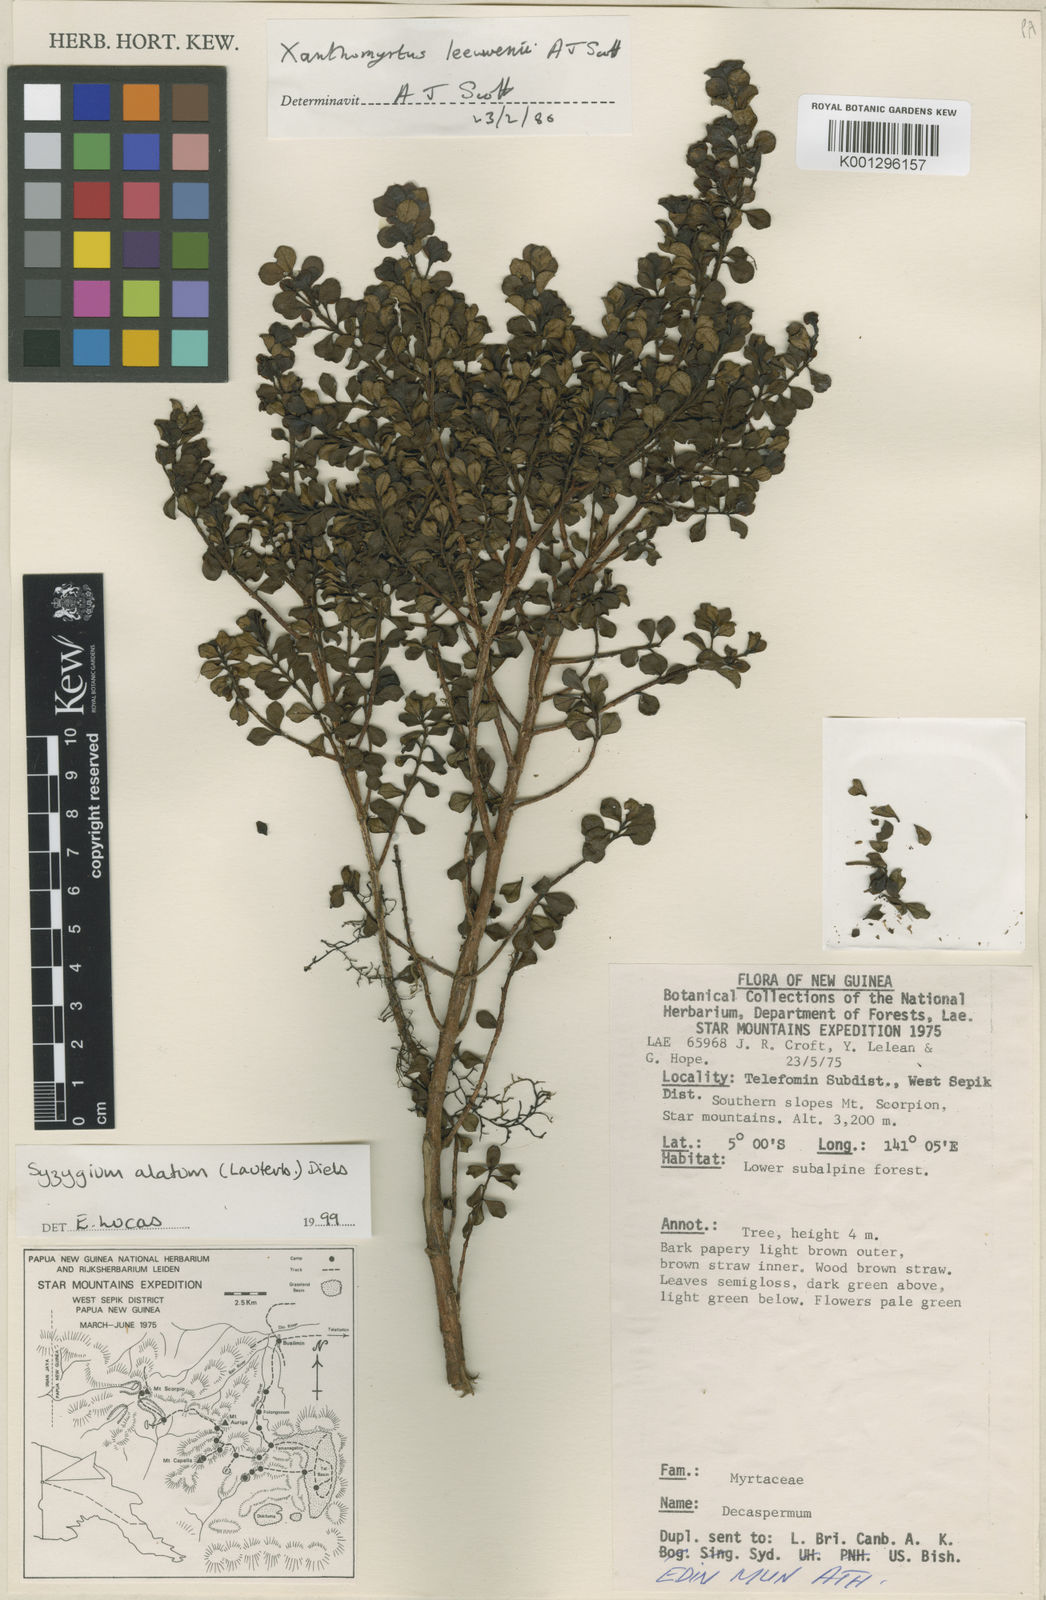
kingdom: Plantae
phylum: Tracheophyta
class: Magnoliopsida
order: Myrtales
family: Myrtaceae
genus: Syzygium
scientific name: Syzygium alatum
